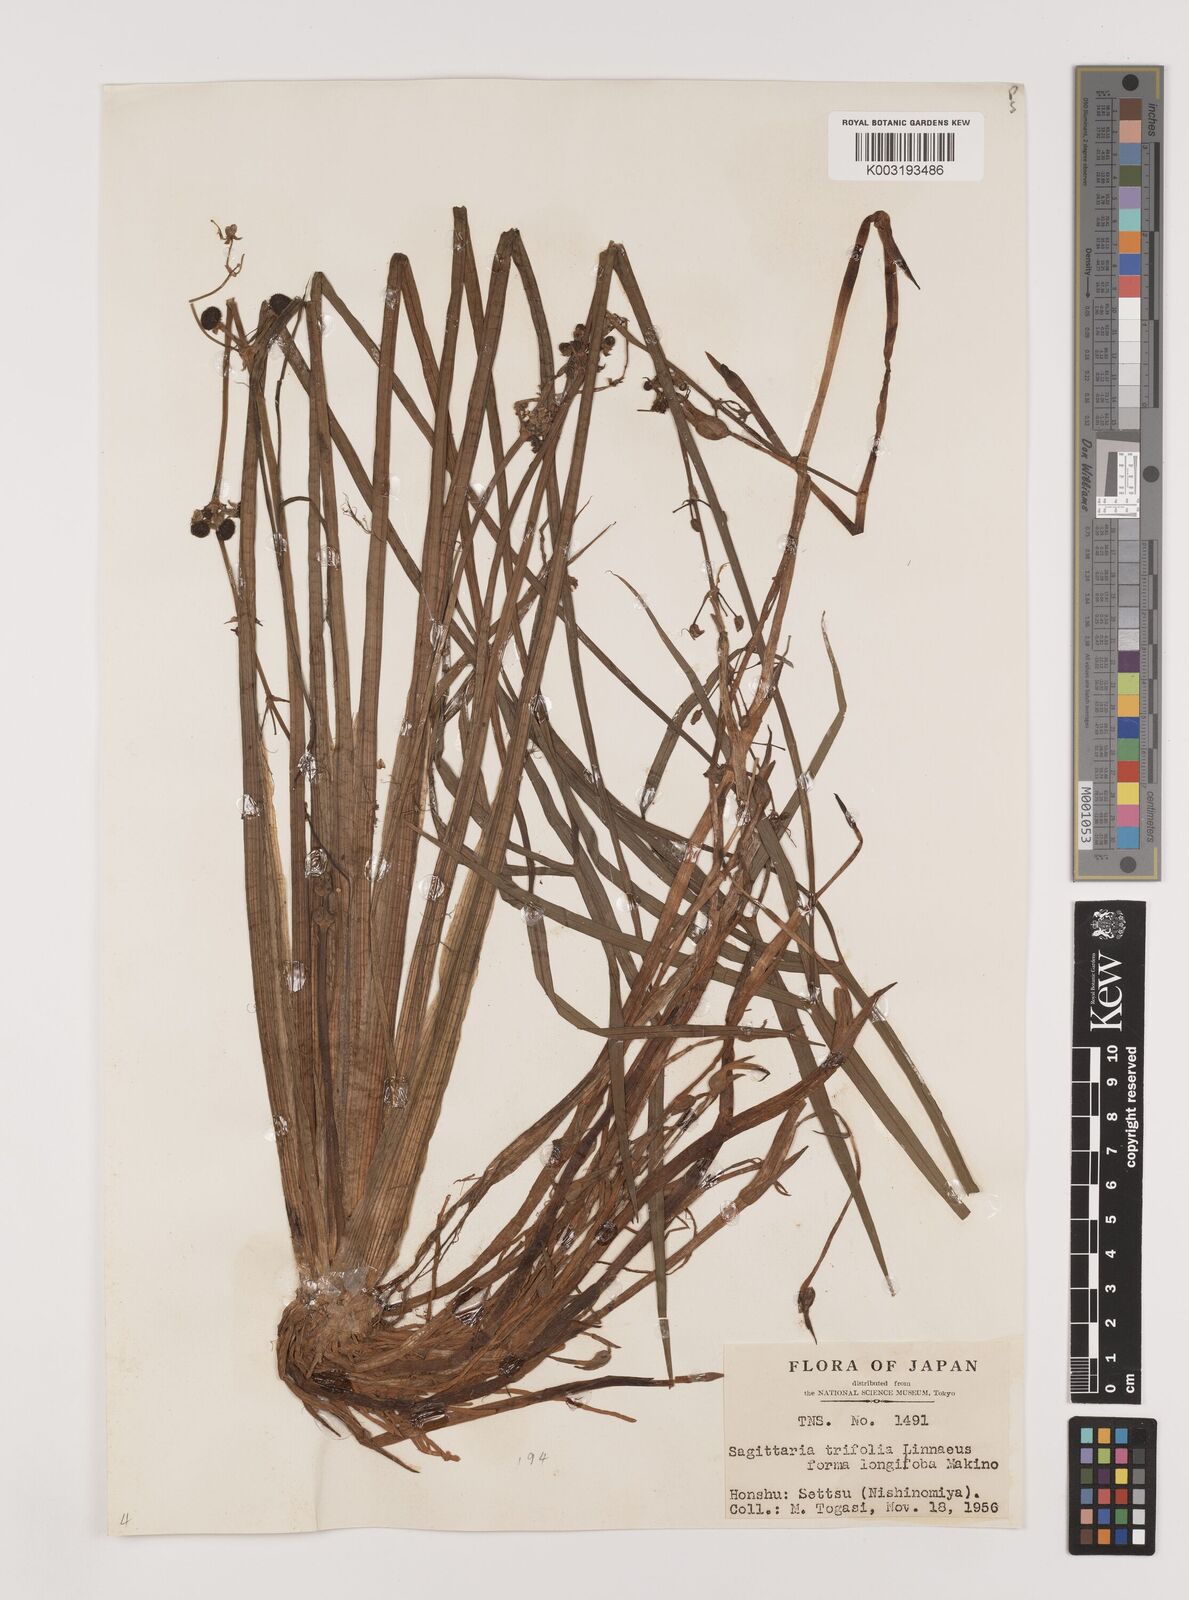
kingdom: Plantae
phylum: Tracheophyta
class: Liliopsida
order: Alismatales
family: Alismataceae
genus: Sagittaria
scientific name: Sagittaria aginashi
